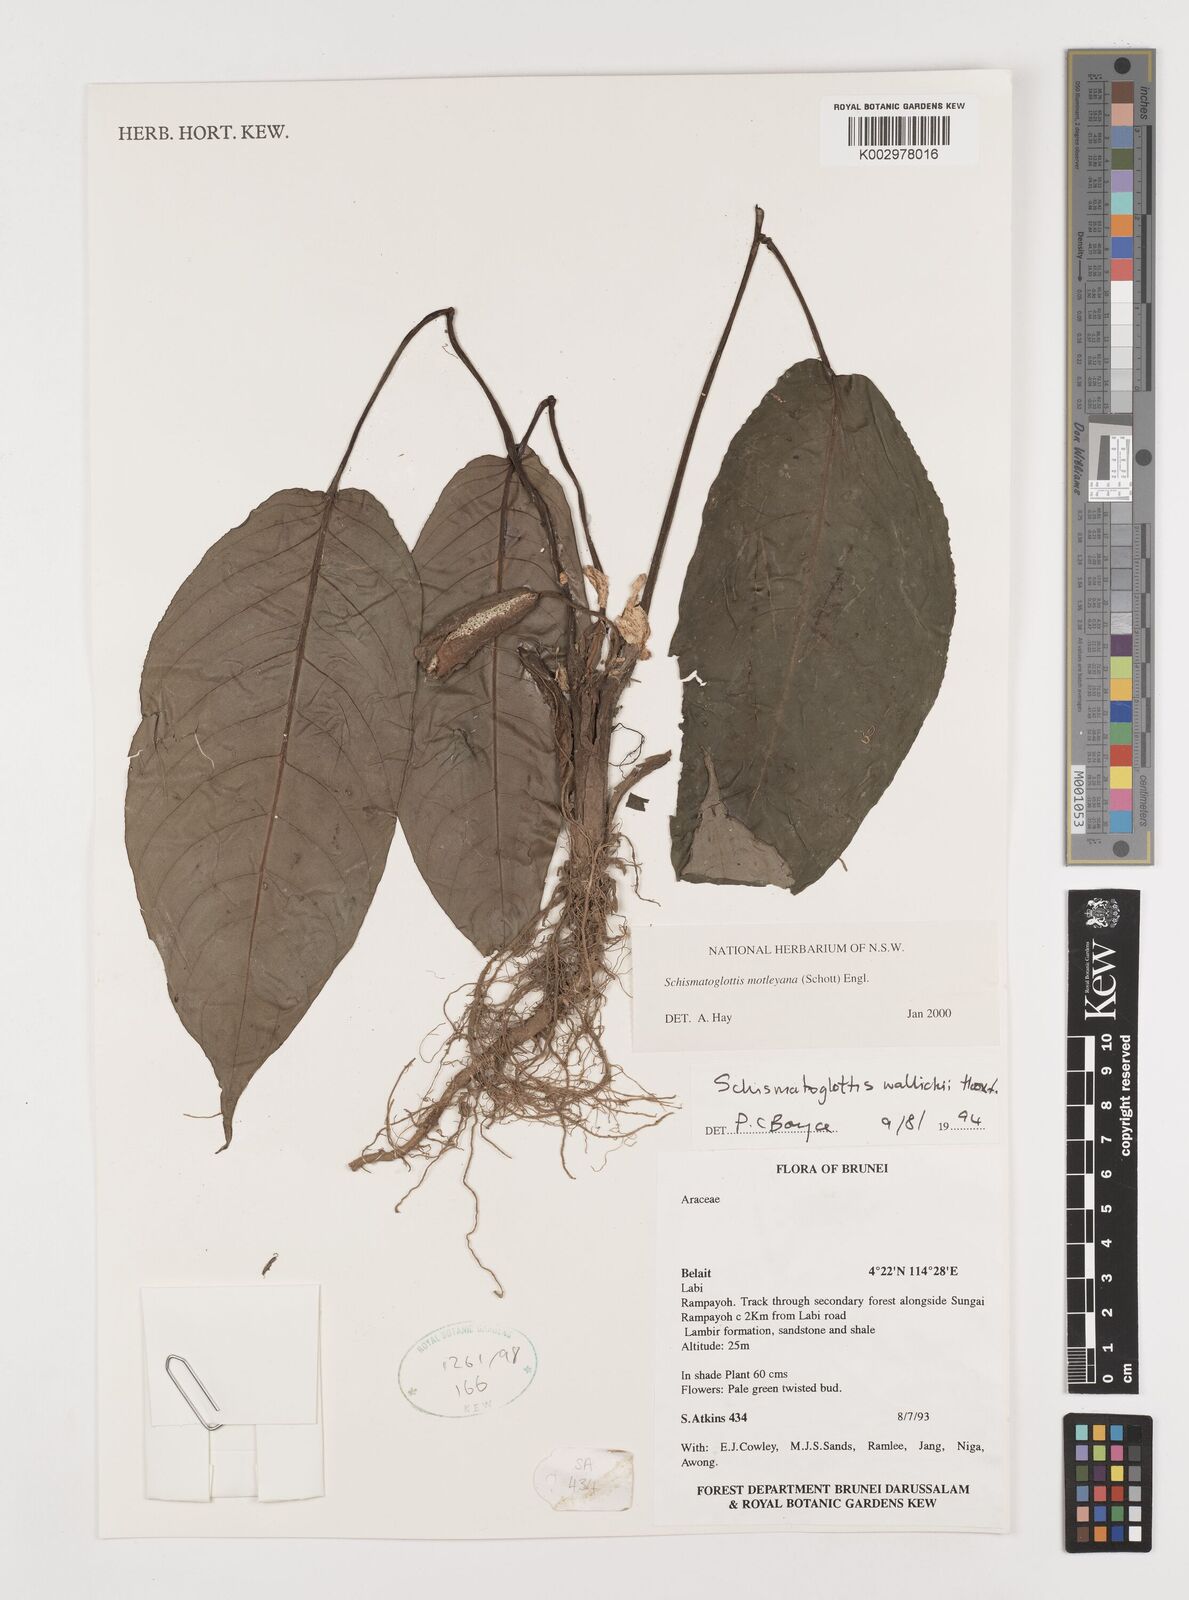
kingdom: Plantae
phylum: Tracheophyta
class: Liliopsida
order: Alismatales
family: Araceae
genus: Schismatoglottis
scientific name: Schismatoglottis motleyana
